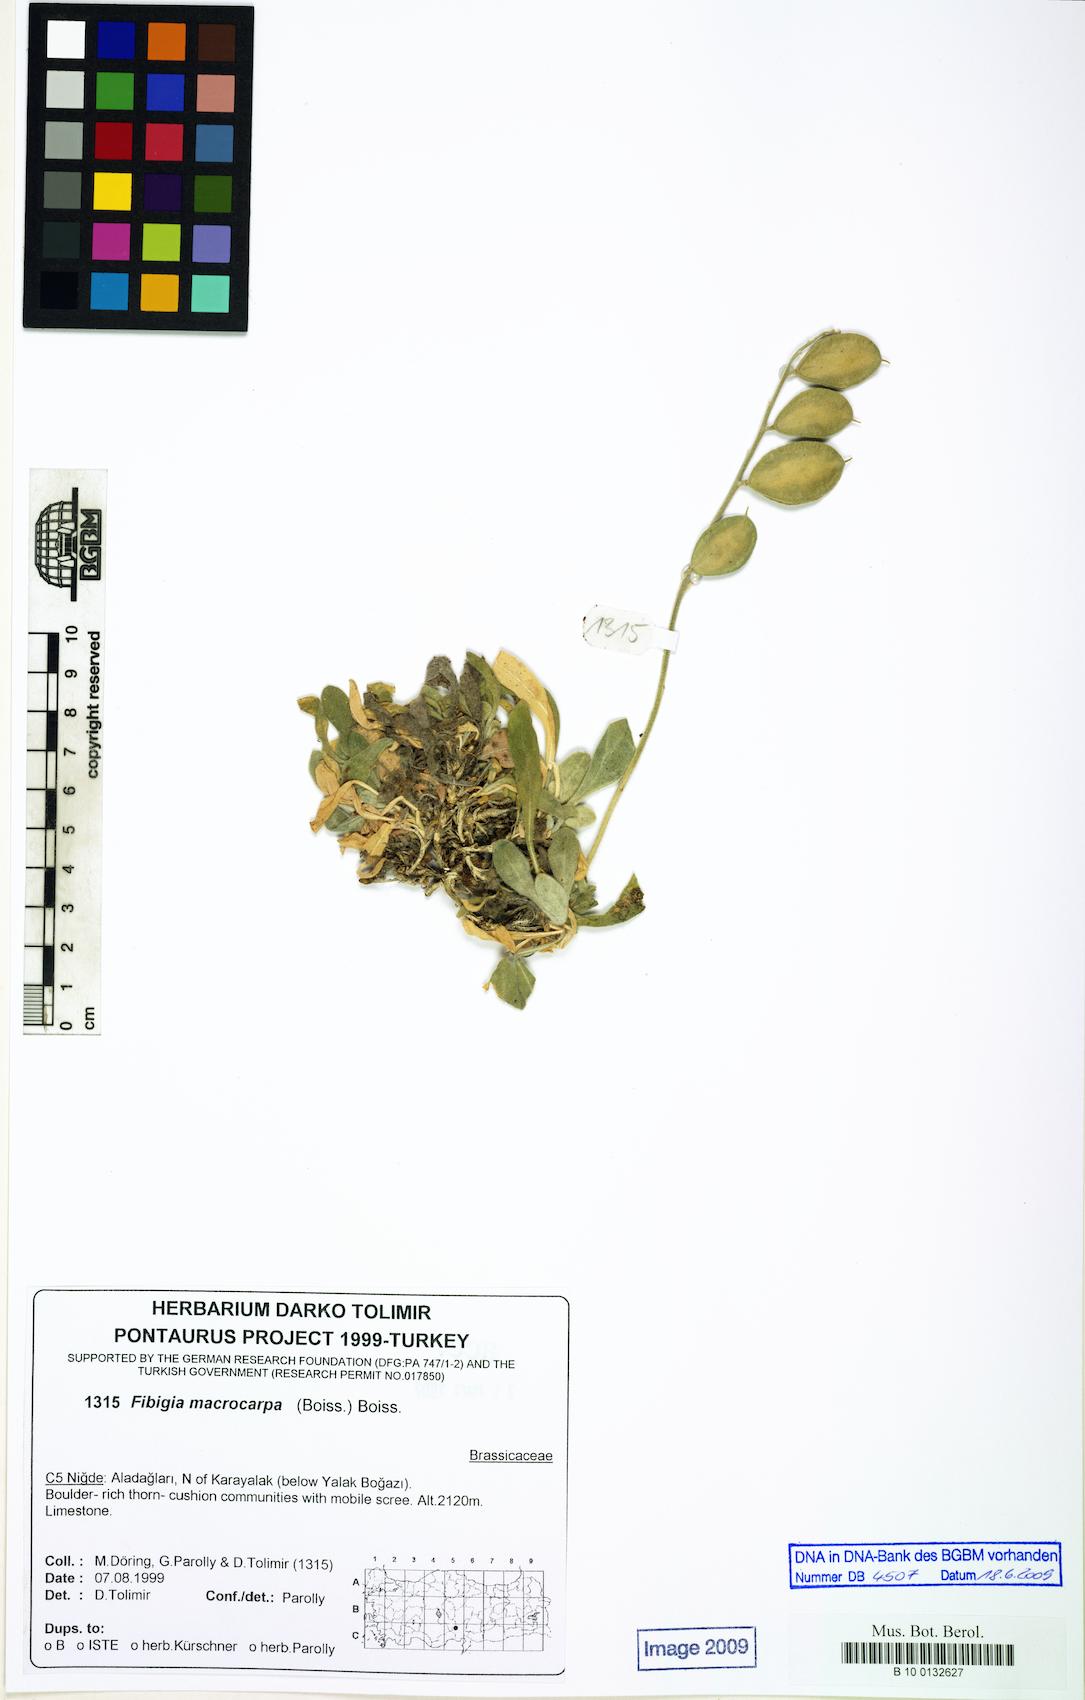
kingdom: Plantae
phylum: Tracheophyta
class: Magnoliopsida
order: Brassicales
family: Brassicaceae
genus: Fibigia
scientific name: Fibigia macrocarpa
